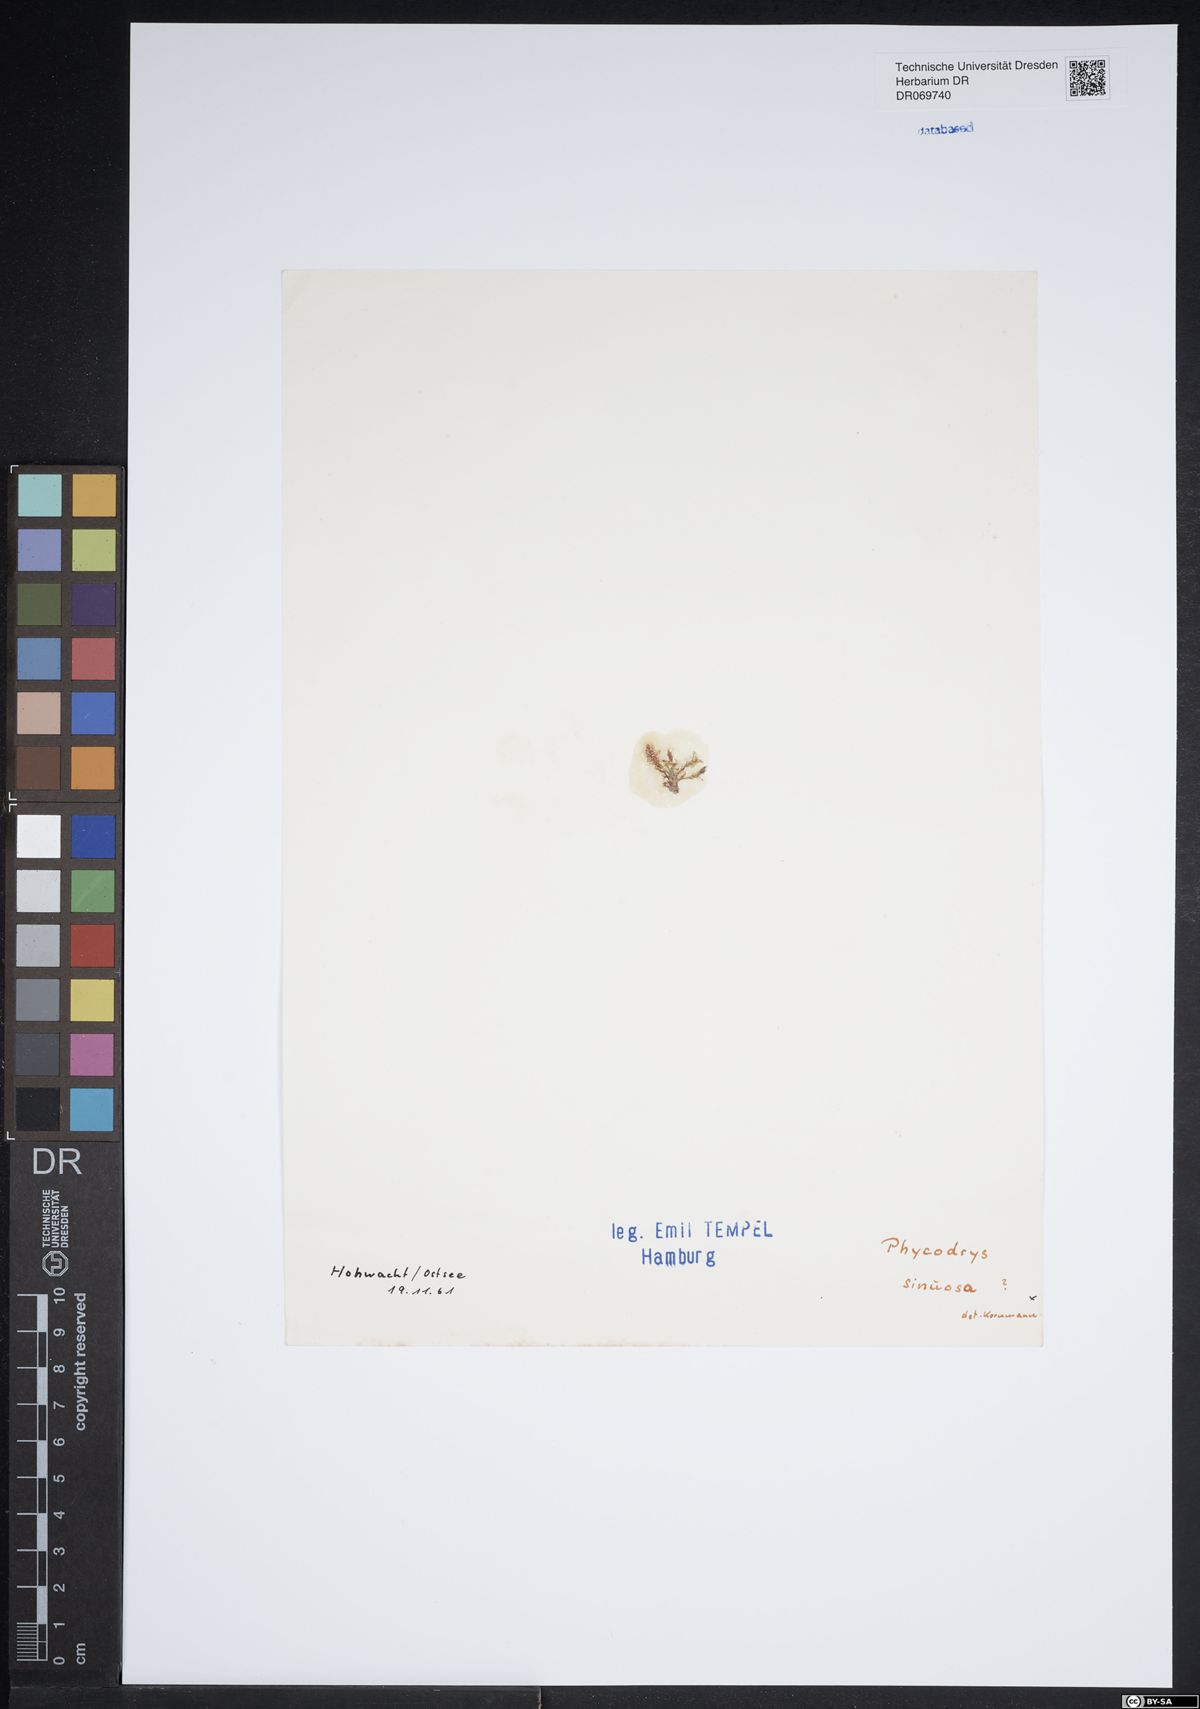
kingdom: Plantae
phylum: Rhodophyta
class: Florideophyceae
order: Ceramiales
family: Delesseriaceae
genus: Phycodrys
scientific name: Phycodrys rubens
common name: Sea oak
